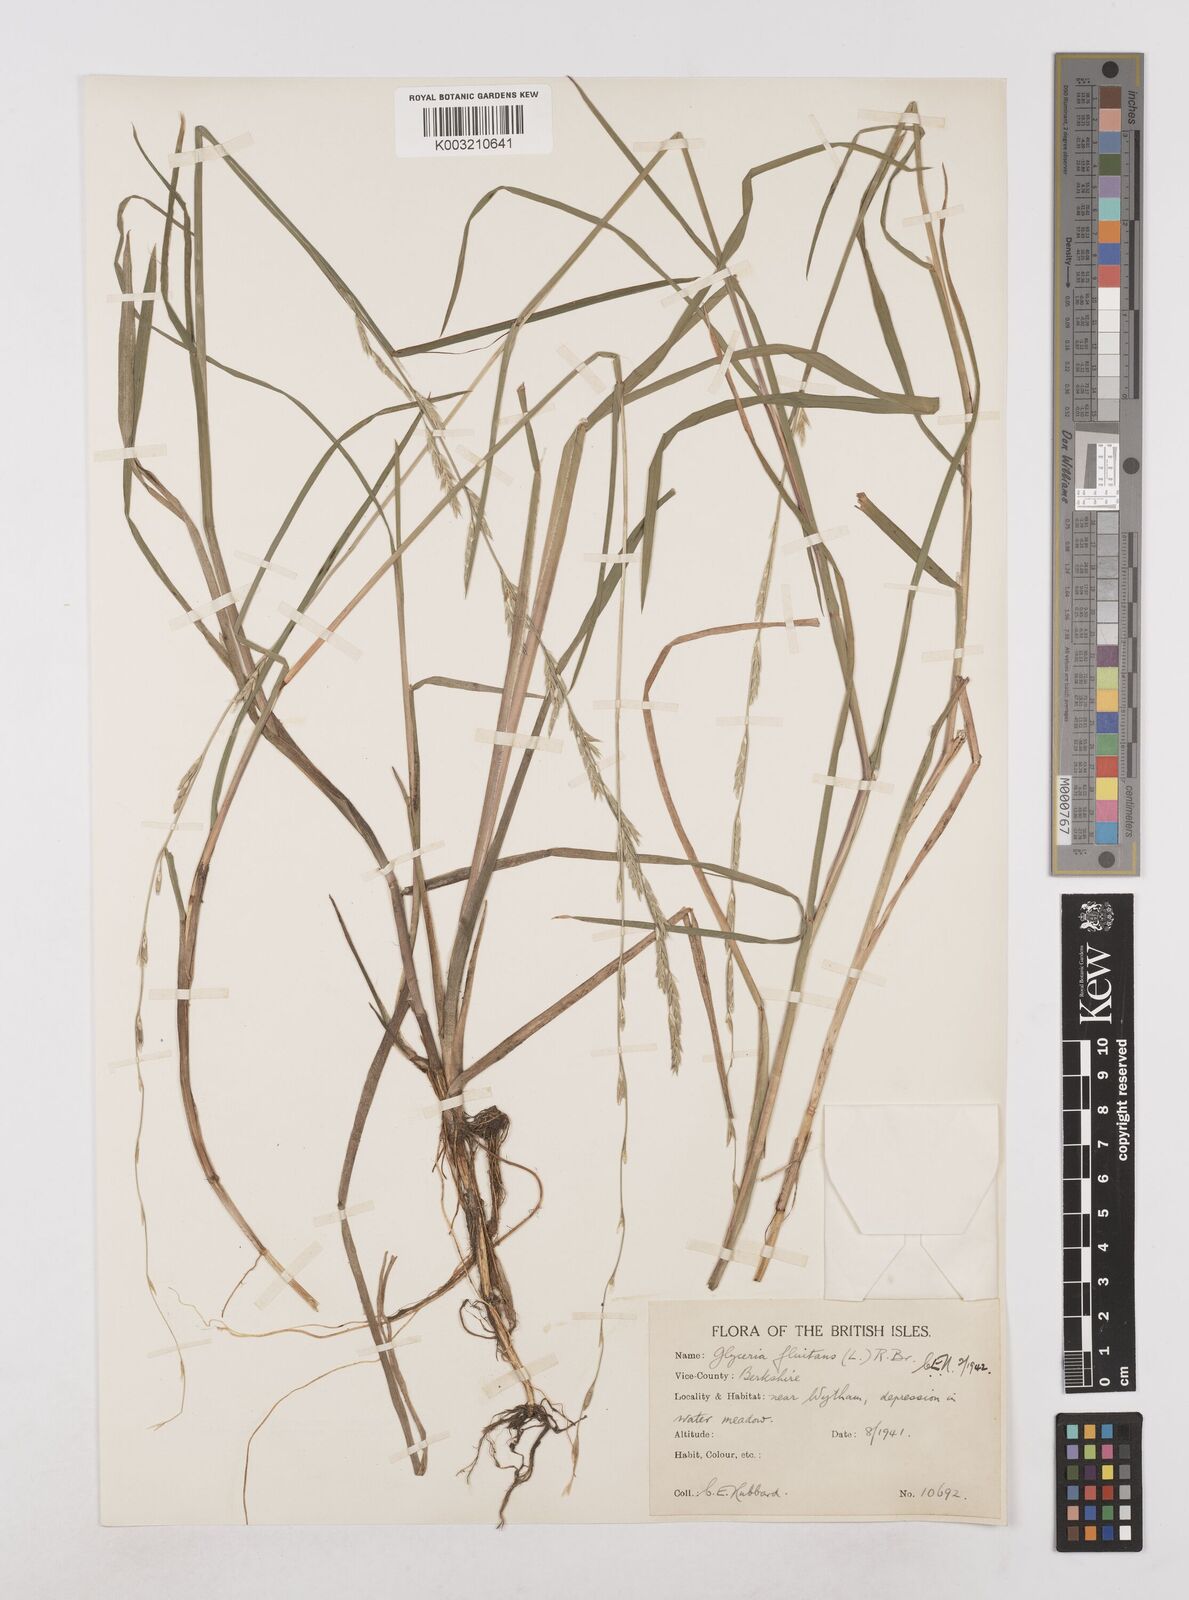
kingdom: Plantae
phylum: Tracheophyta
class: Liliopsida
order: Poales
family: Poaceae
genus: Glyceria
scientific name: Glyceria fluitans
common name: Floating sweet-grass
